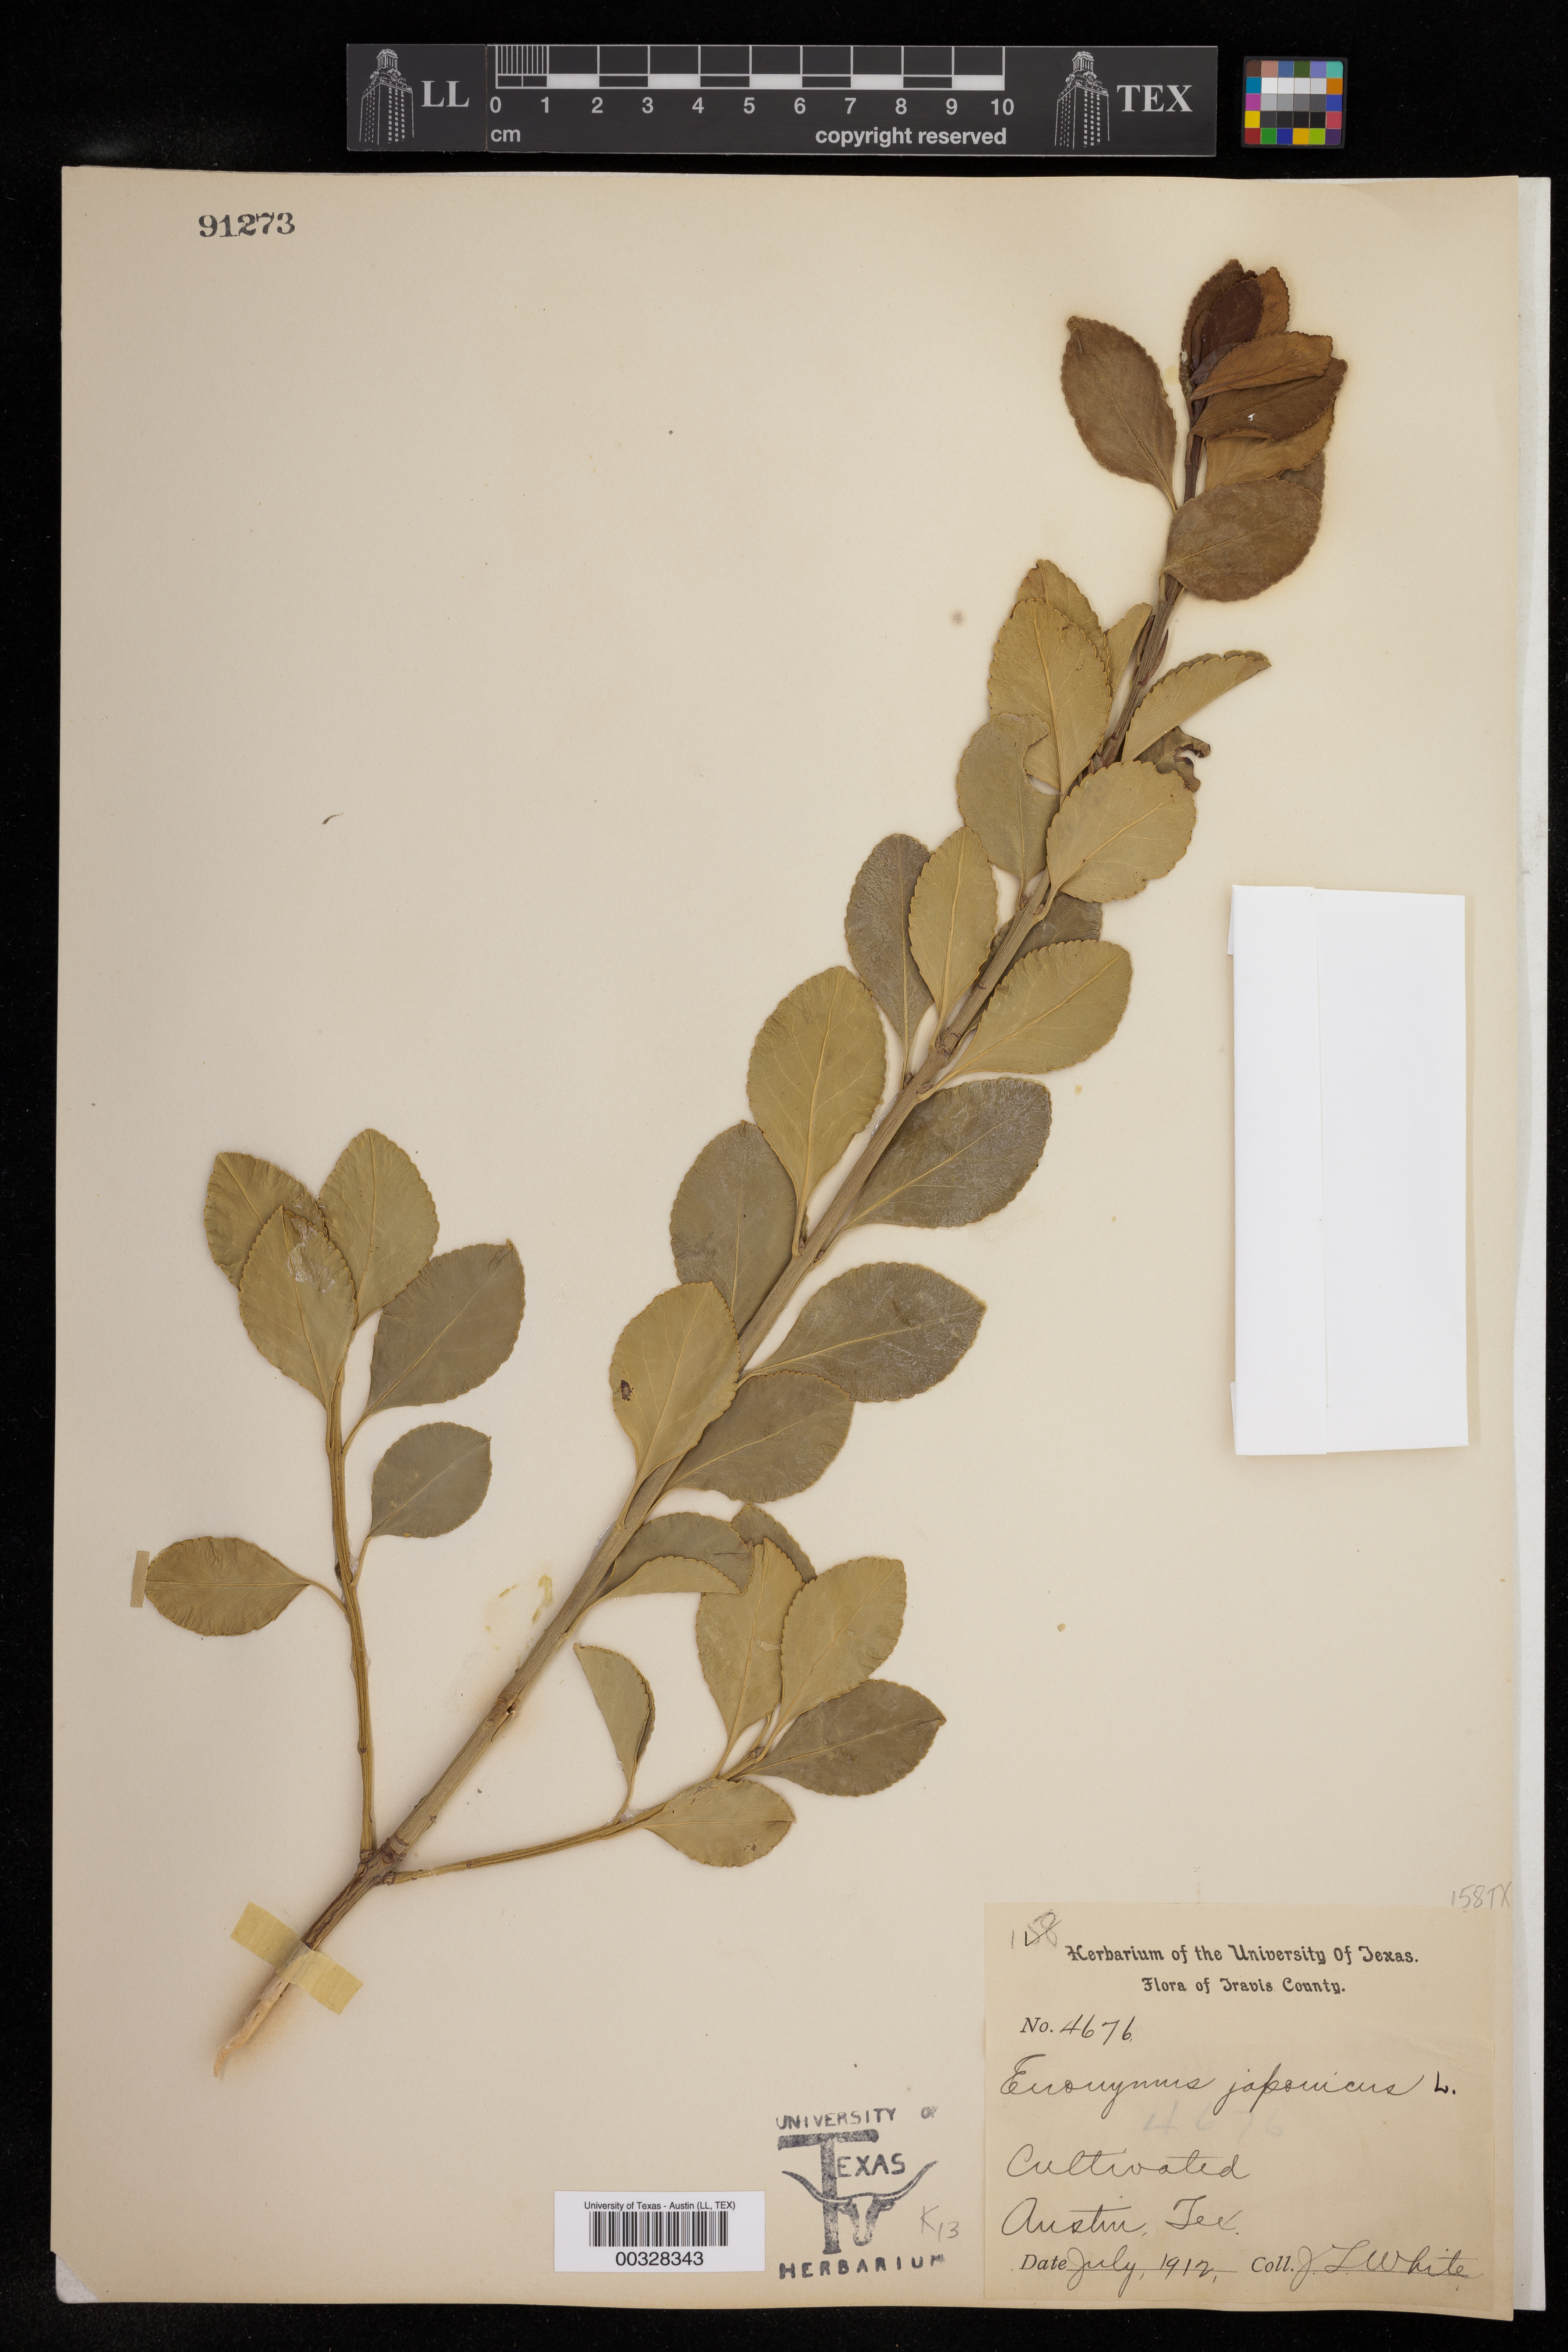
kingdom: Plantae
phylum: Tracheophyta
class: Magnoliopsida
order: Celastrales
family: Celastraceae
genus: Euonymus
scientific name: Euonymus japonicus
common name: Japanese spindletree
